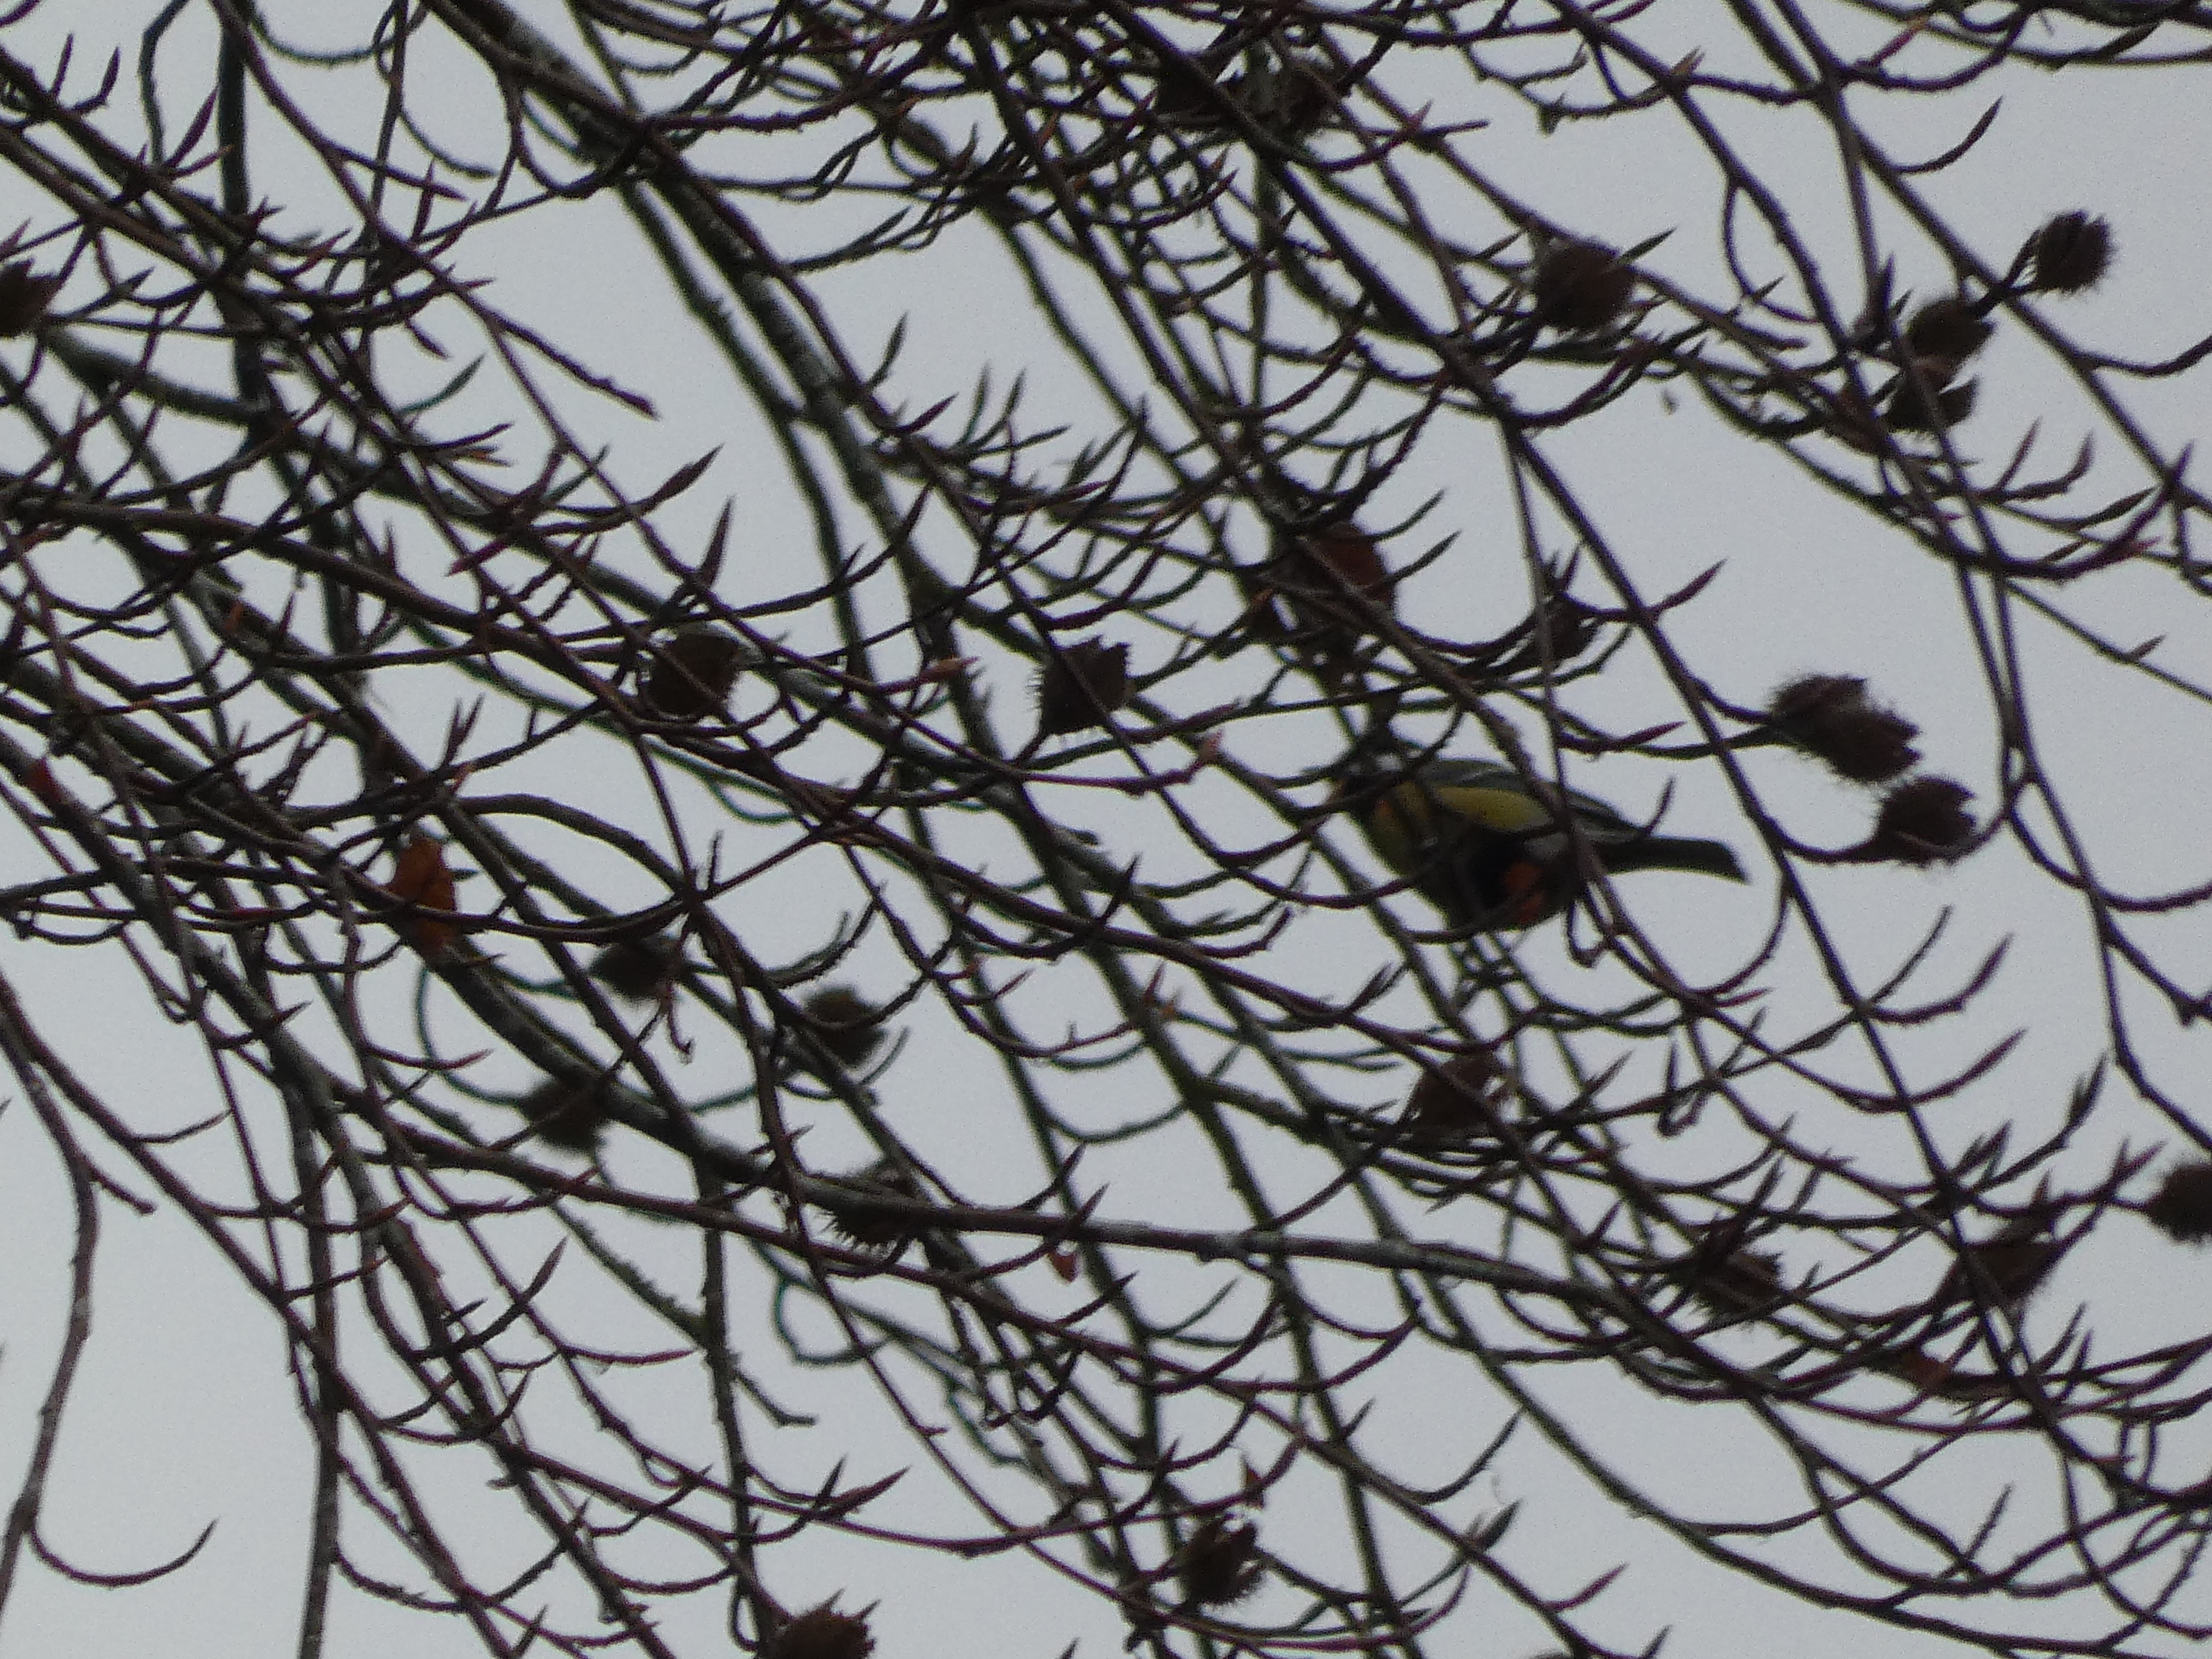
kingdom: Animalia
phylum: Chordata
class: Aves
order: Passeriformes
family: Paridae
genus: Parus
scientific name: Parus major
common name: Musvit
